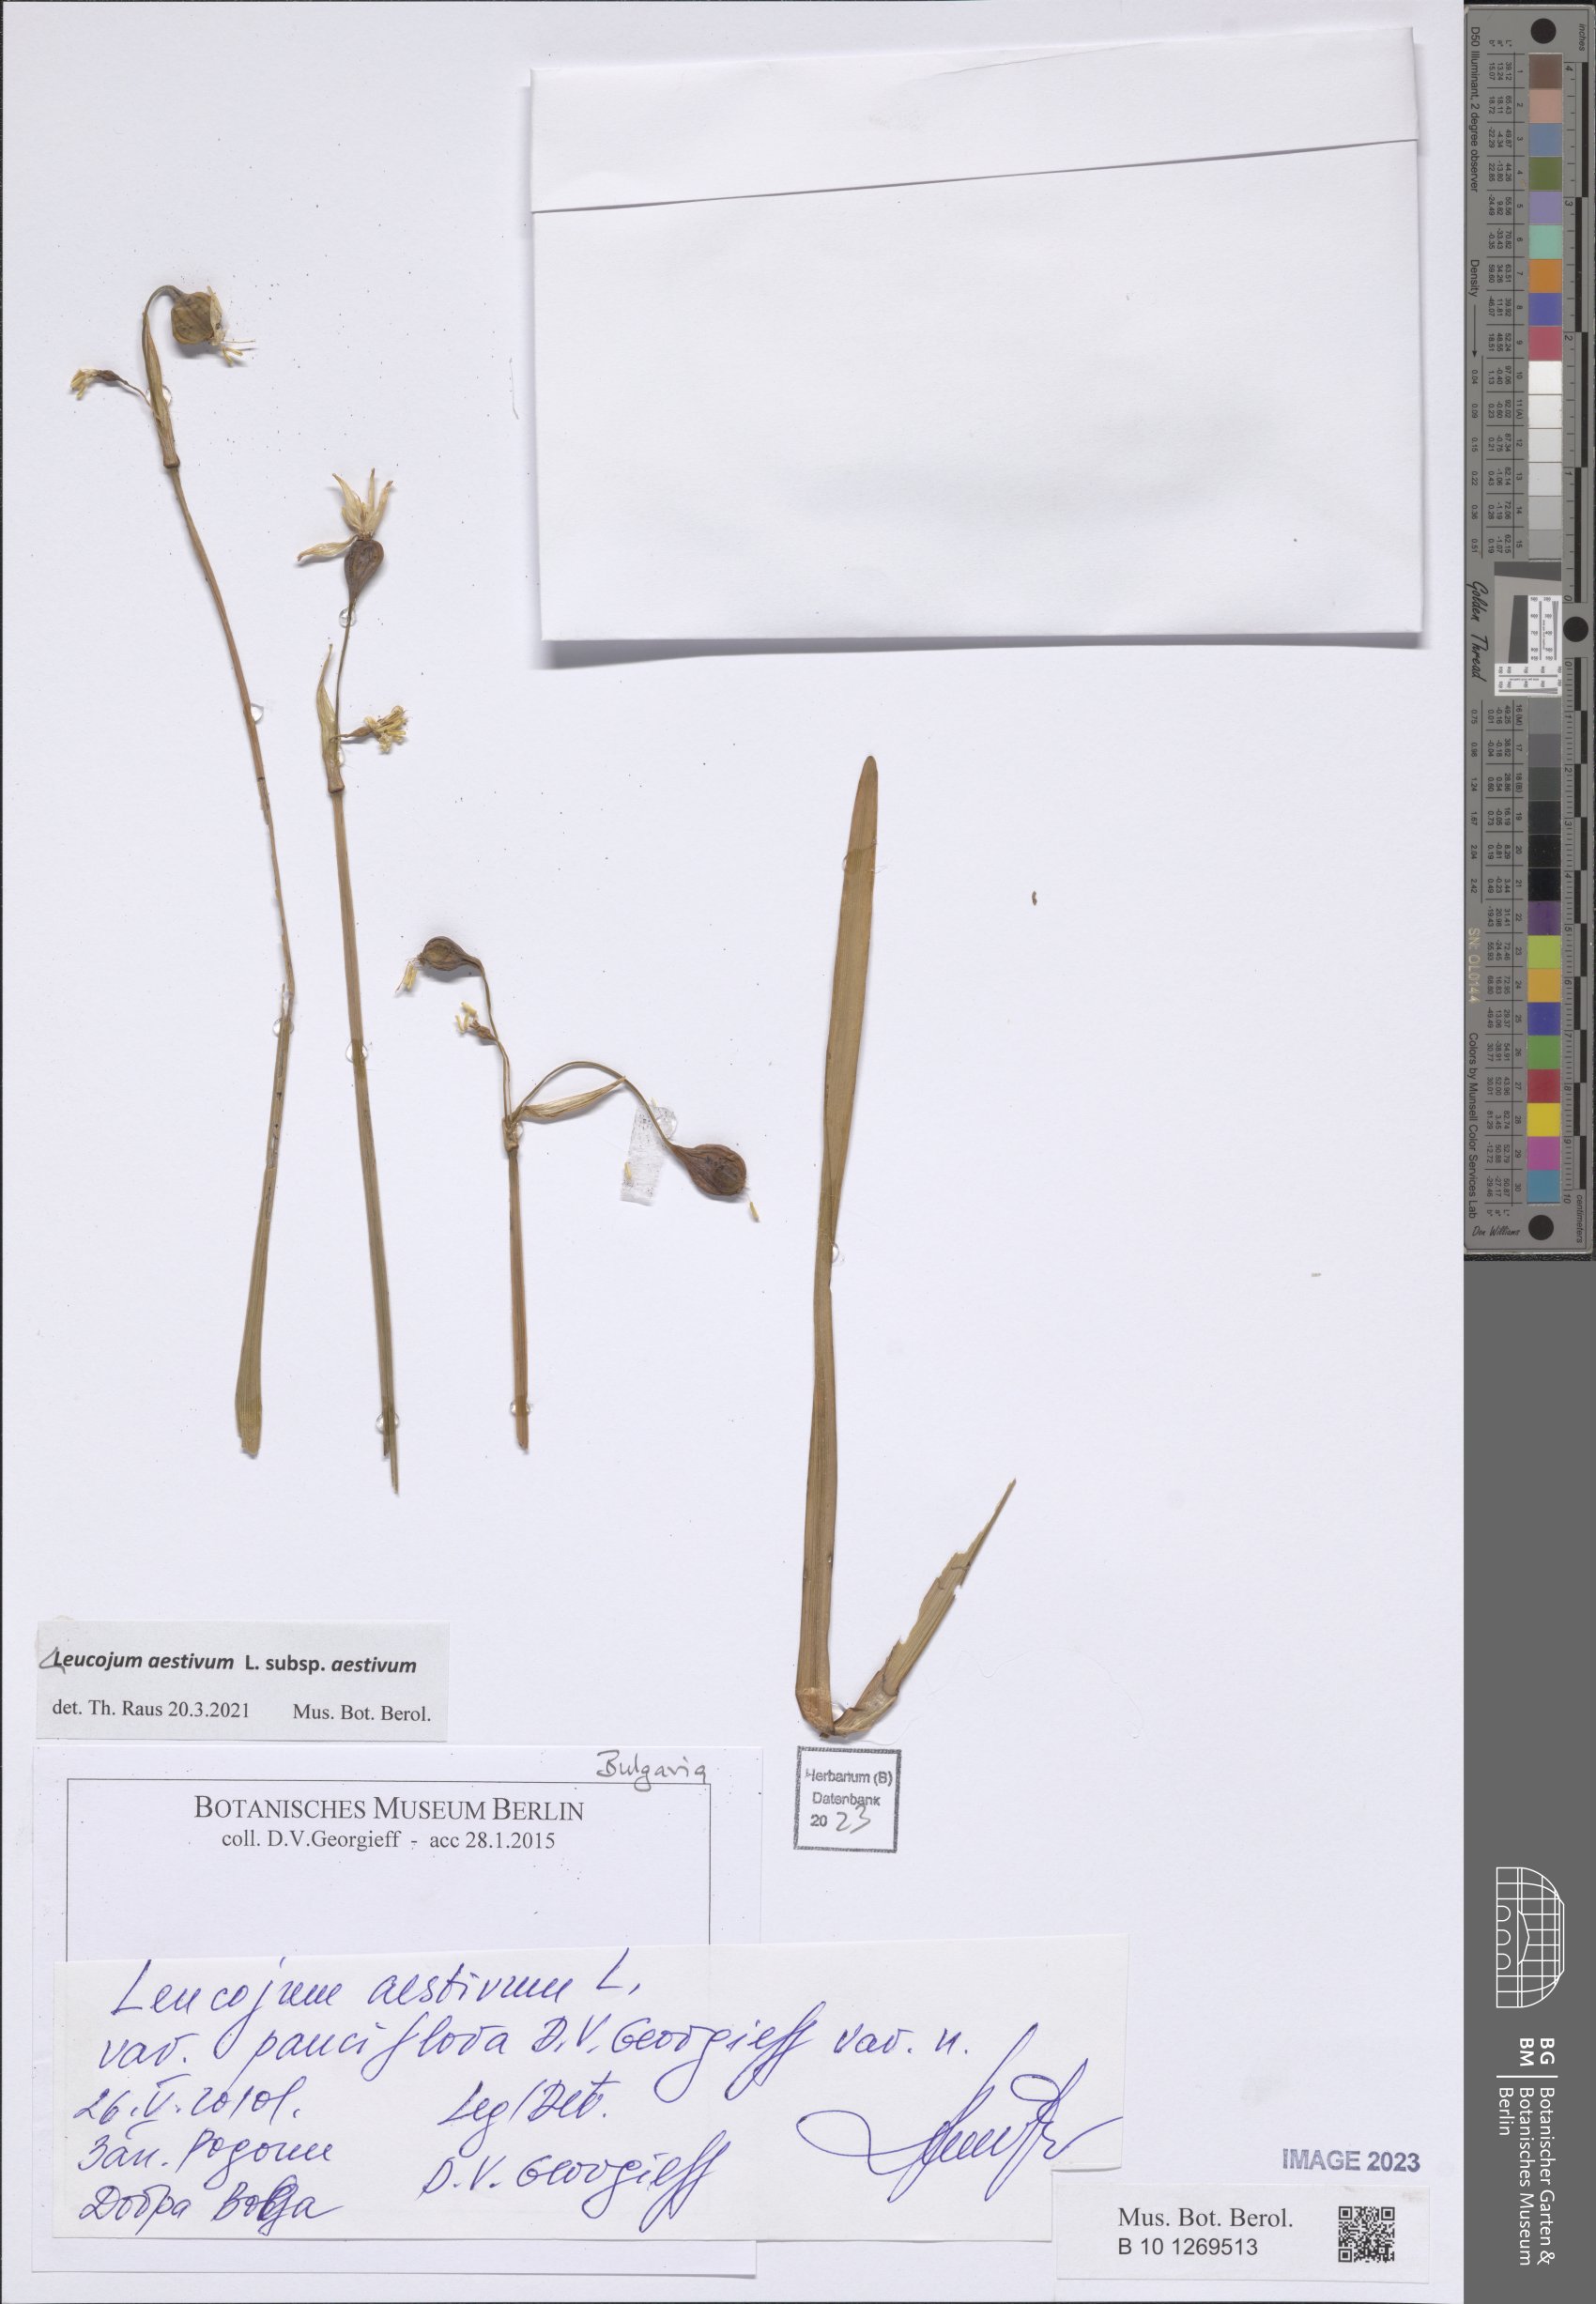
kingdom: Plantae
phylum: Tracheophyta
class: Liliopsida
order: Asparagales
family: Amaryllidaceae
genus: Leucojum
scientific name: Leucojum aestivum
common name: Summer snowflake
